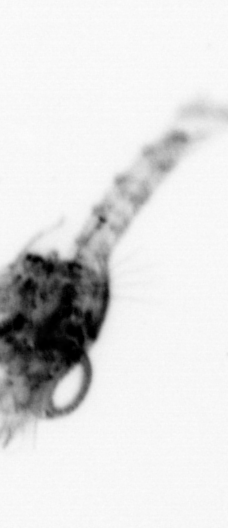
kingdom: Animalia
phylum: Arthropoda
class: Malacostraca
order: Decapoda
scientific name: Decapoda
